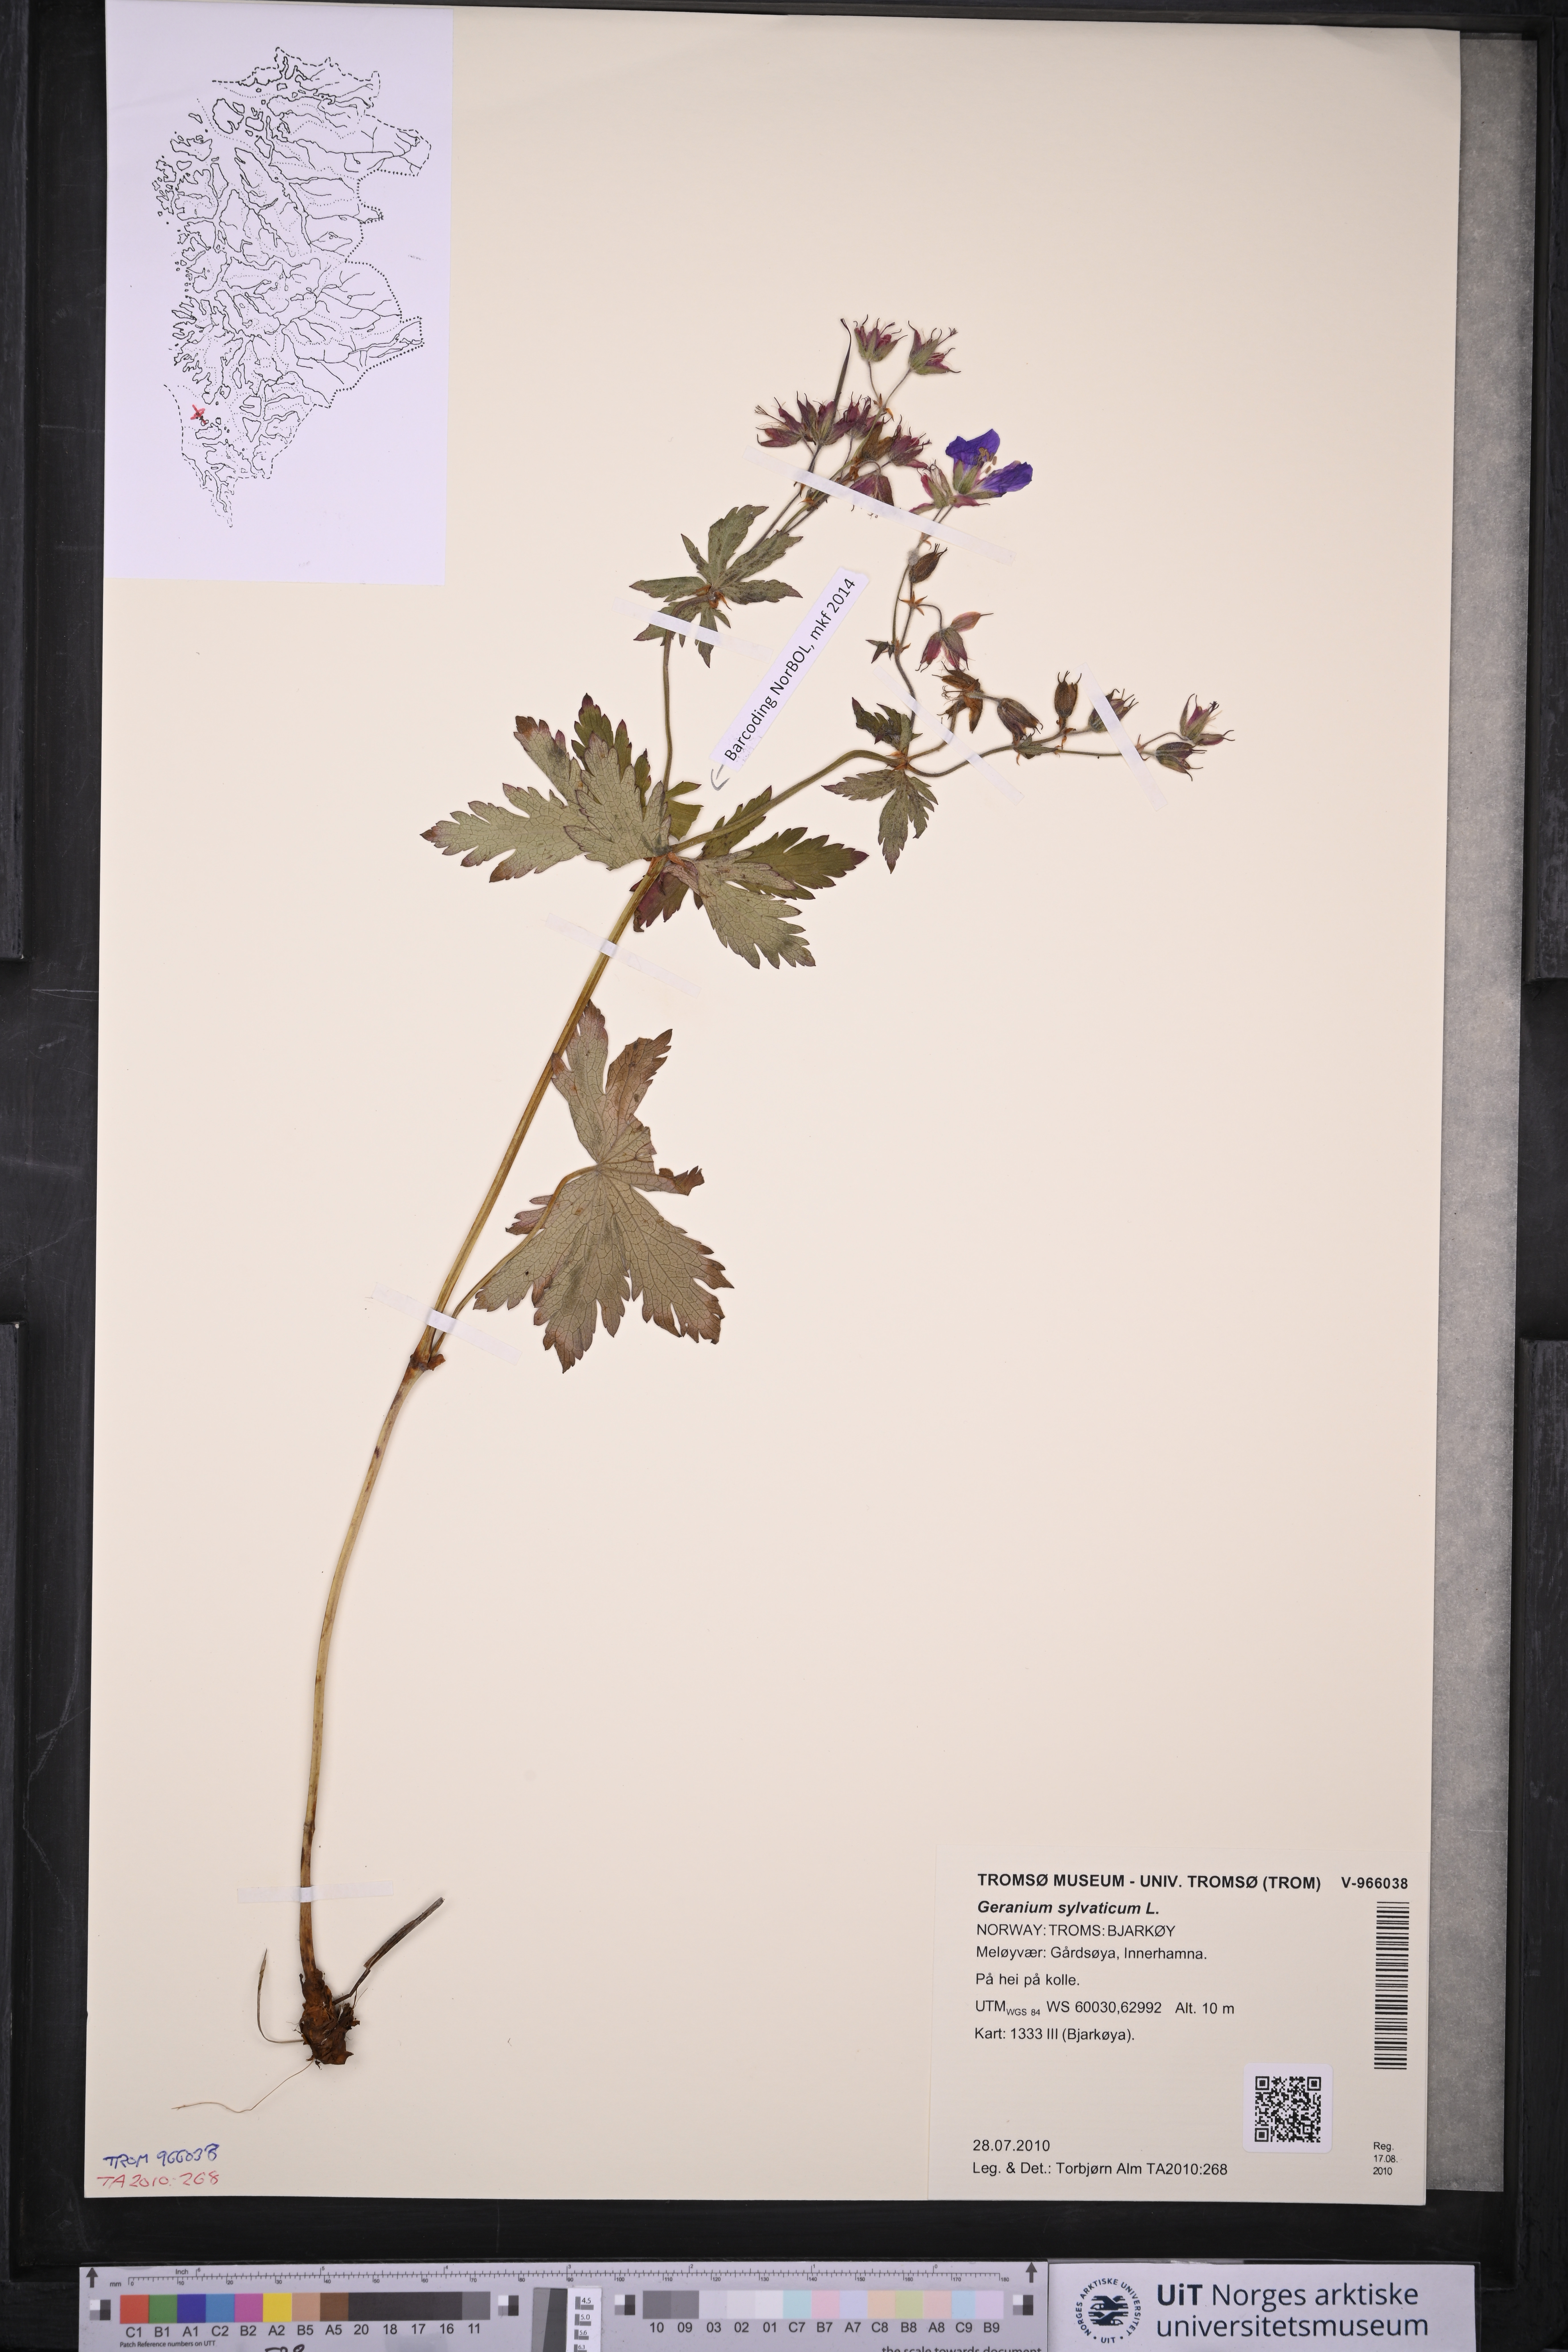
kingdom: Plantae
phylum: Tracheophyta
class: Magnoliopsida
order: Geraniales
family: Geraniaceae
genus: Geranium
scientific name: Geranium sylvaticum
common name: Wood crane's-bill
